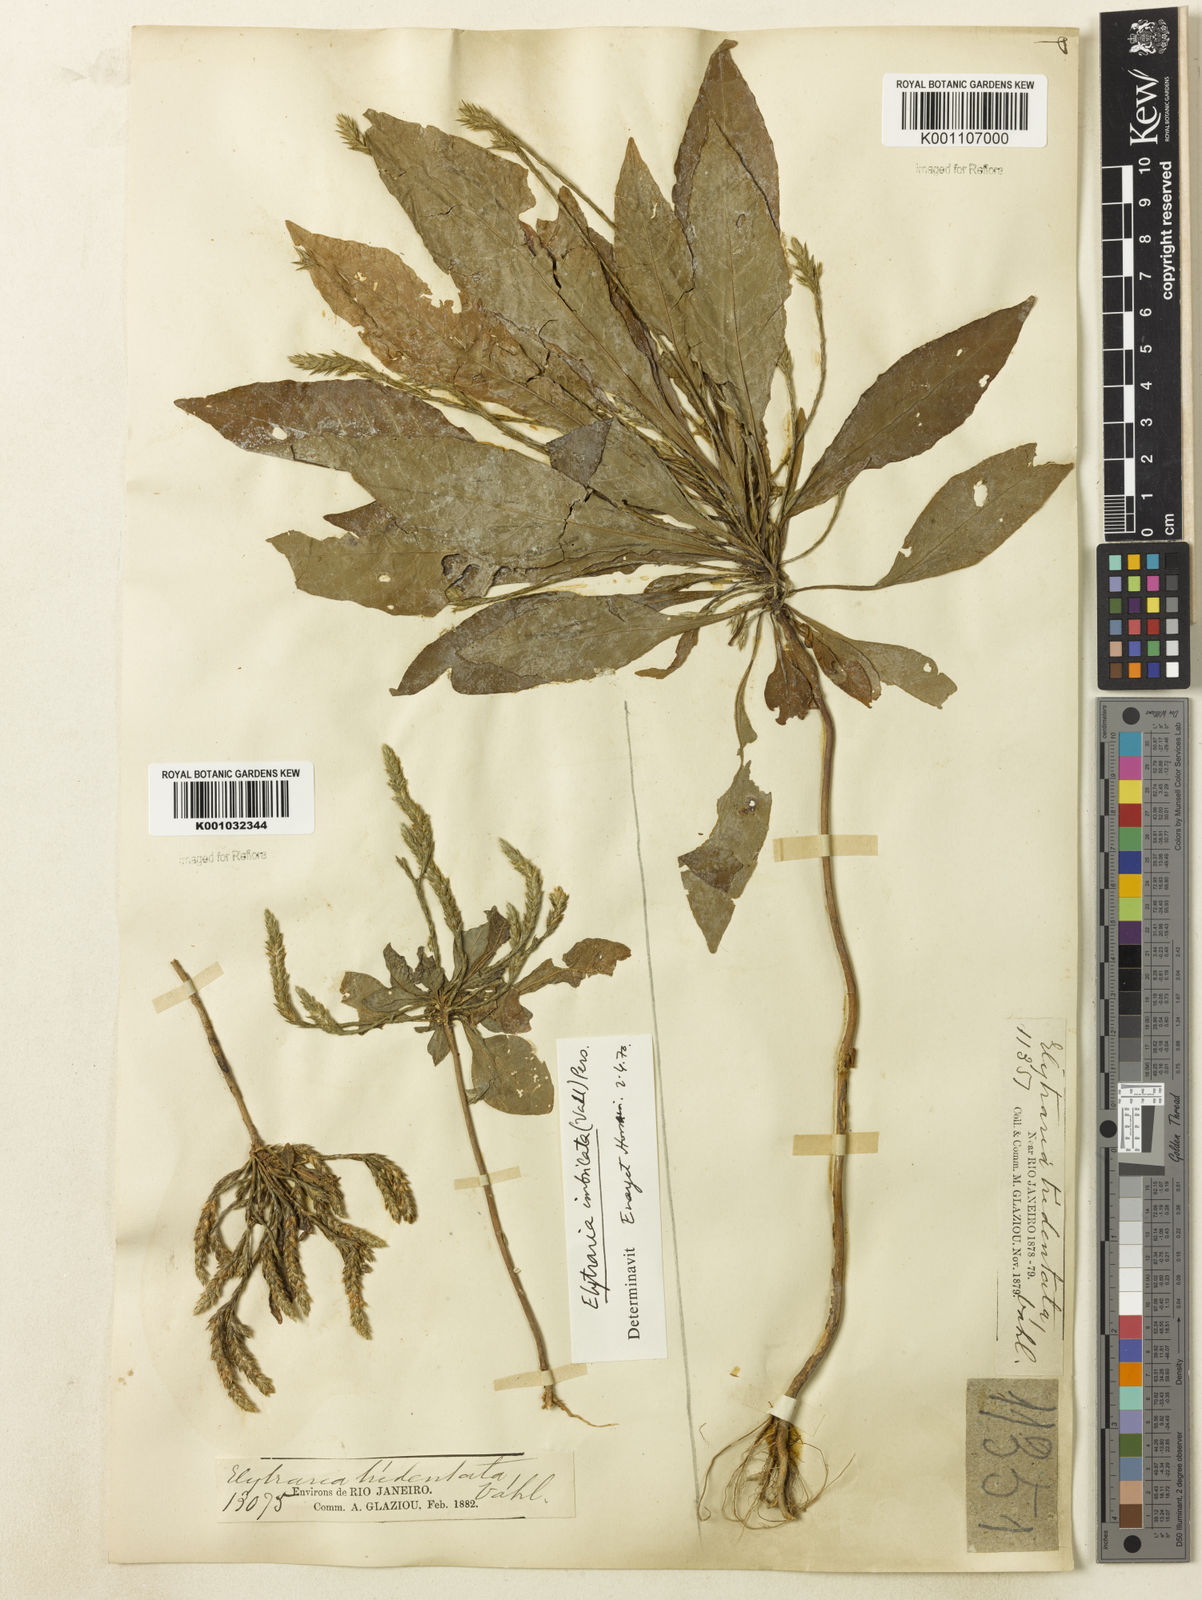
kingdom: Plantae
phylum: Tracheophyta
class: Magnoliopsida
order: Lamiales
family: Acanthaceae
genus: Elytraria
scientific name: Elytraria imbricata
